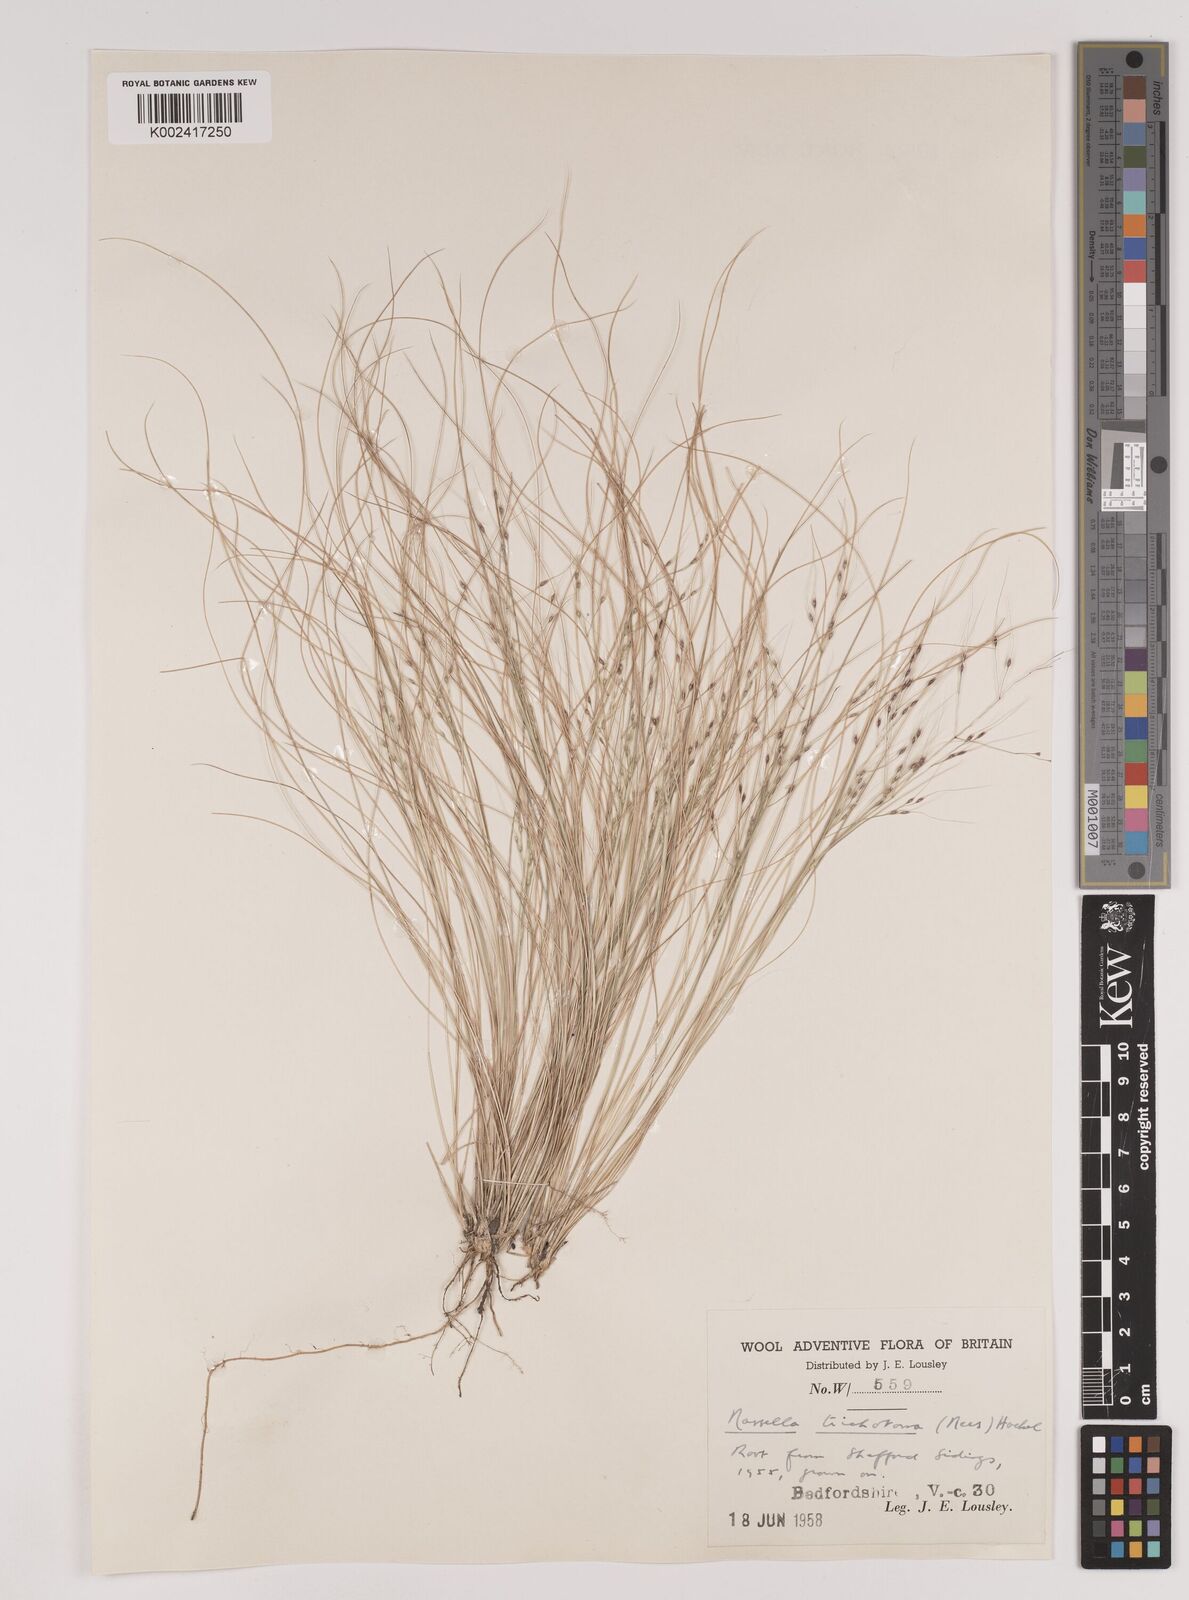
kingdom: Plantae
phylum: Tracheophyta
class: Liliopsida
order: Poales
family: Poaceae
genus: Nassella
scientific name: Nassella trichotoma
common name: Serrated tussock grass
